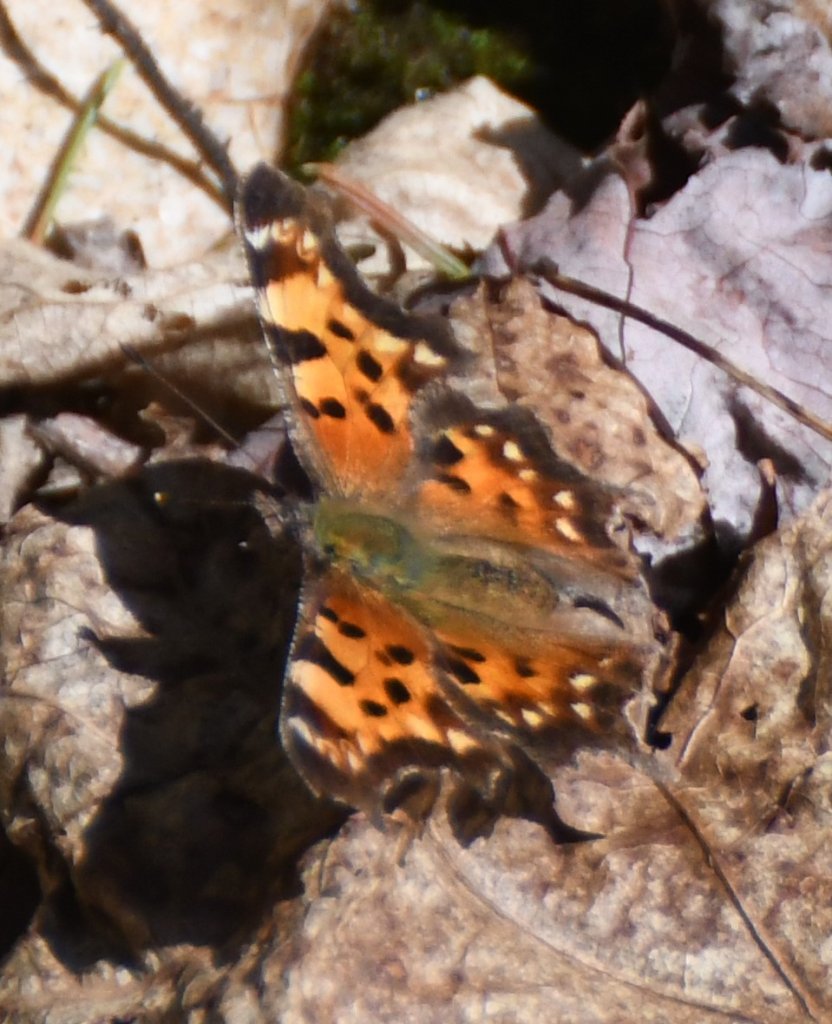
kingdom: Animalia
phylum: Arthropoda
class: Insecta
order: Lepidoptera
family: Nymphalidae
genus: Polygonia
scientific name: Polygonia faunus
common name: Green Comma
